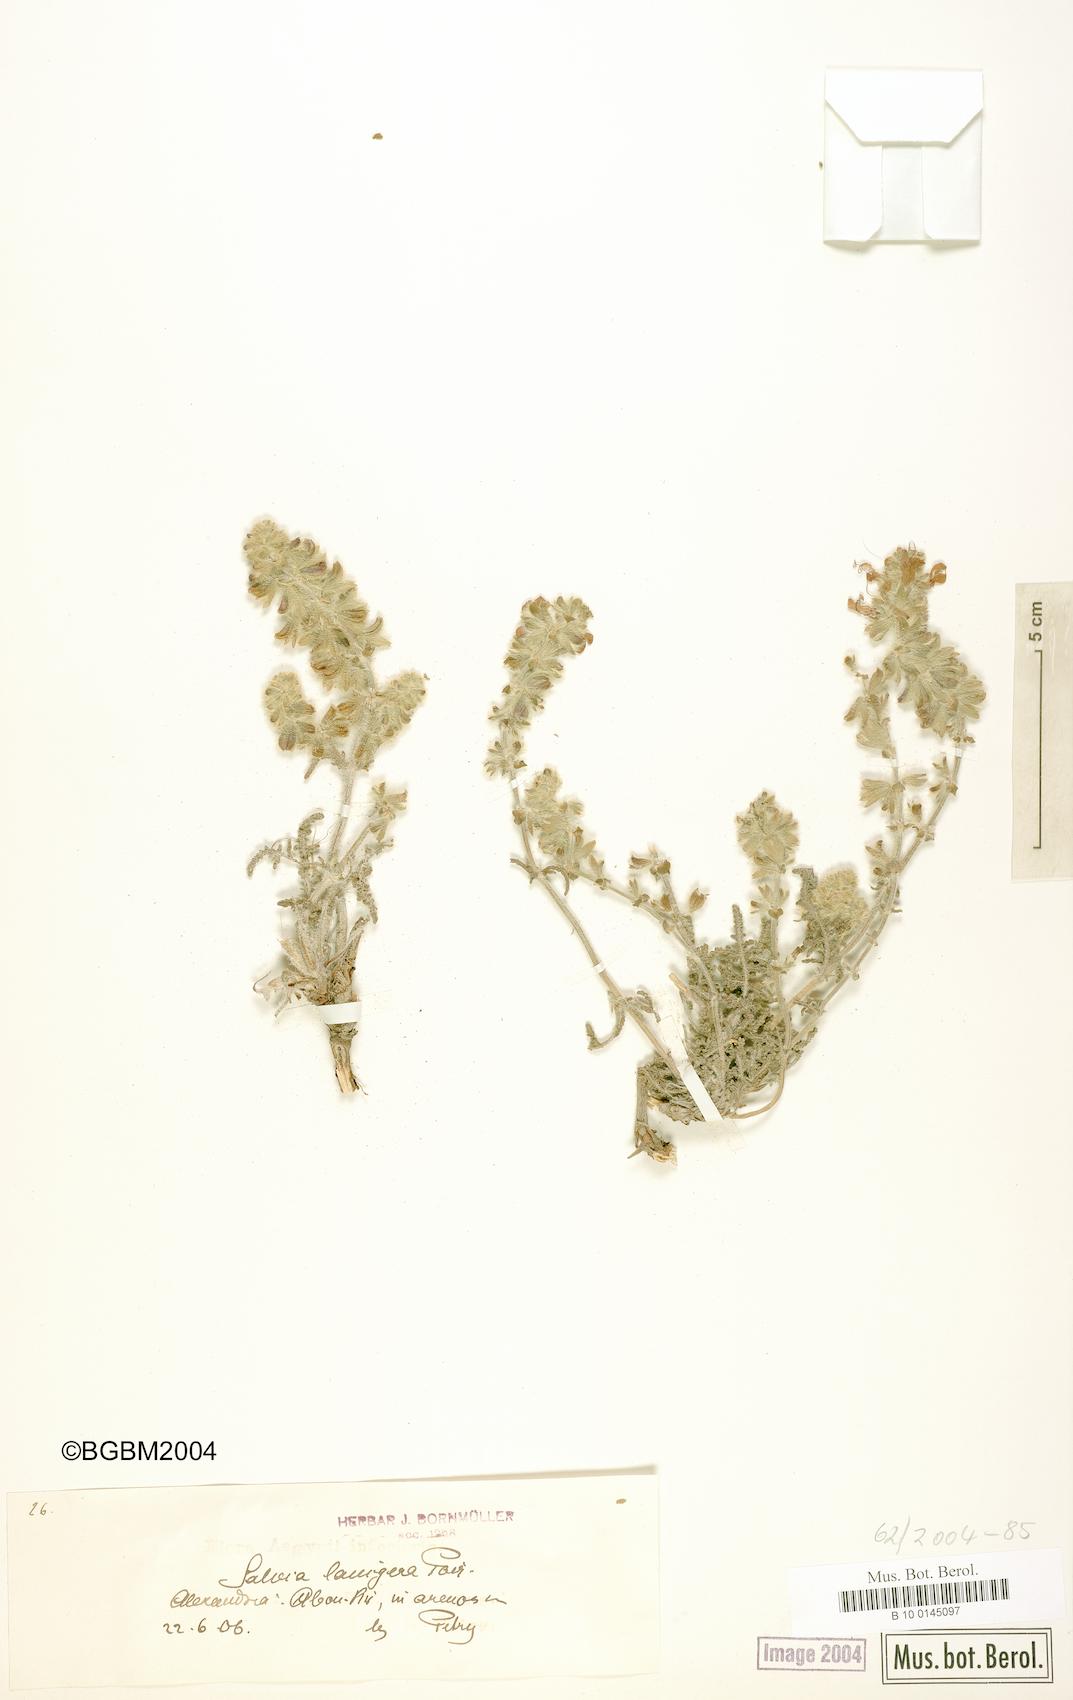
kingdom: Plantae
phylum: Tracheophyta
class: Magnoliopsida
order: Lamiales
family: Lamiaceae
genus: Salvia
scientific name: Salvia lanigera
